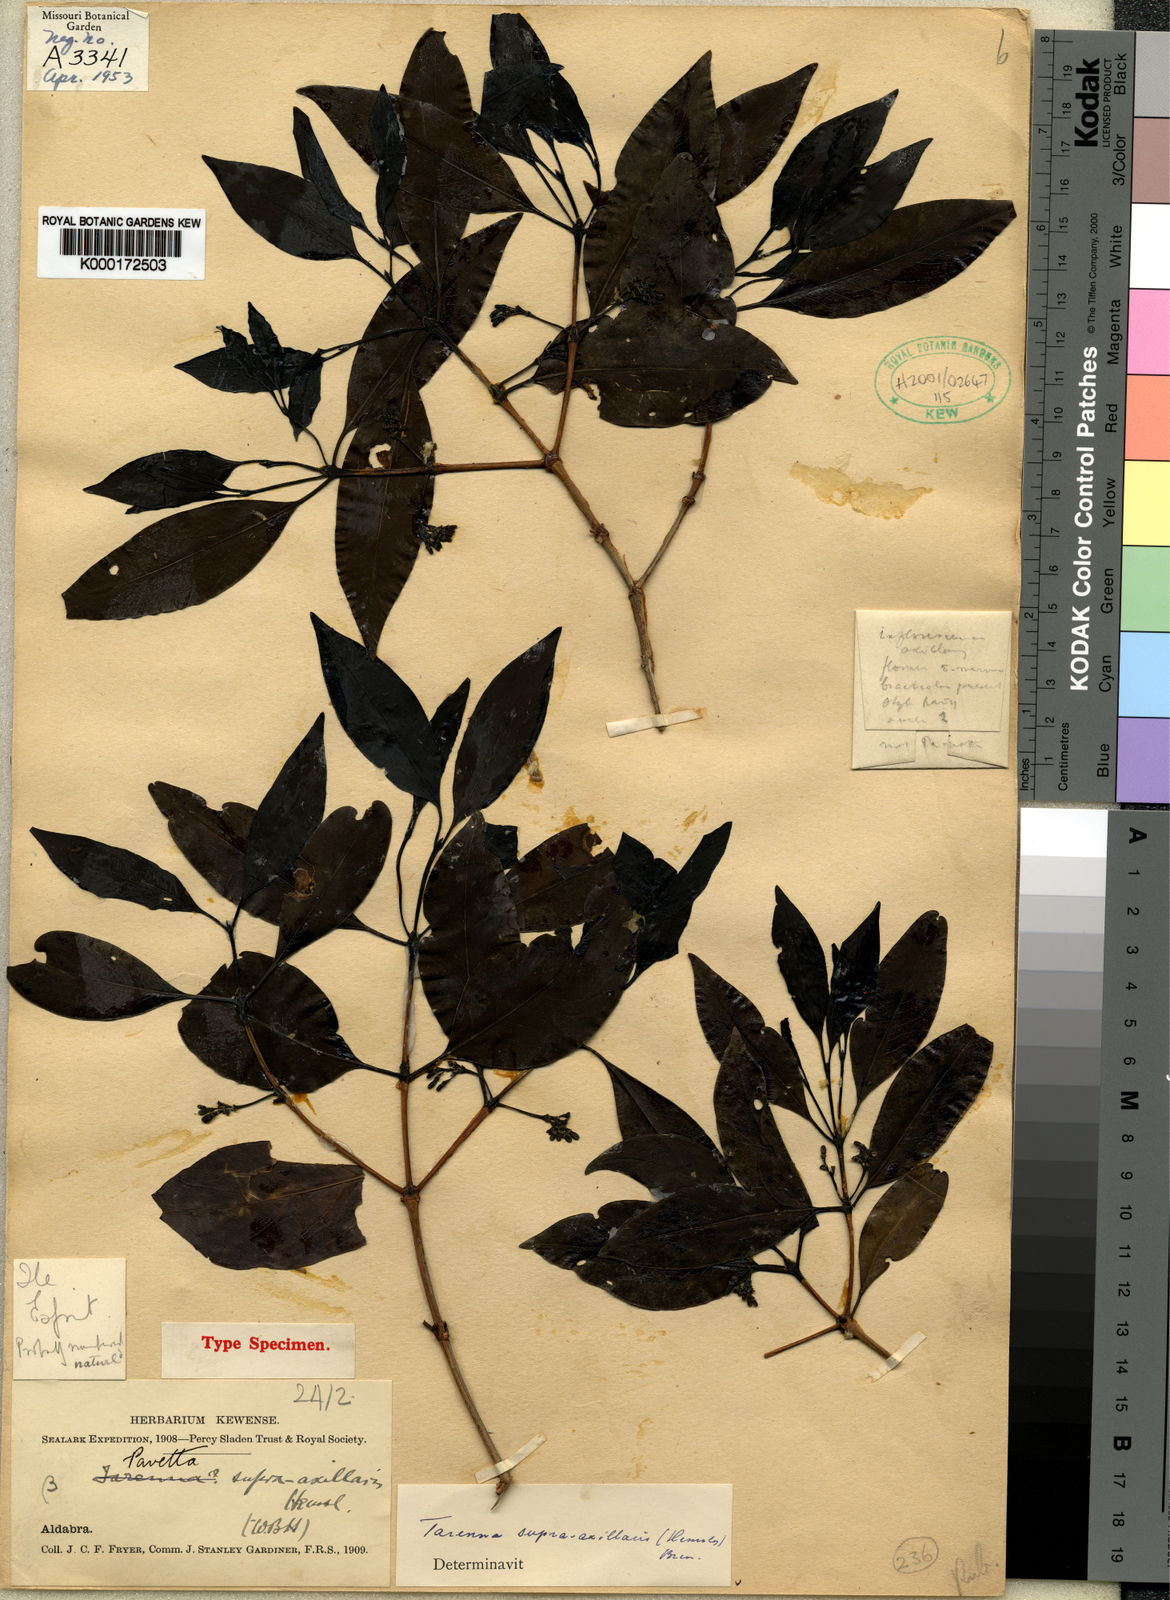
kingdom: Plantae
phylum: Tracheophyta
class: Magnoliopsida
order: Gentianales
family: Rubiaceae
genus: Coptosperma
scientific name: Coptosperma supra-axillare
